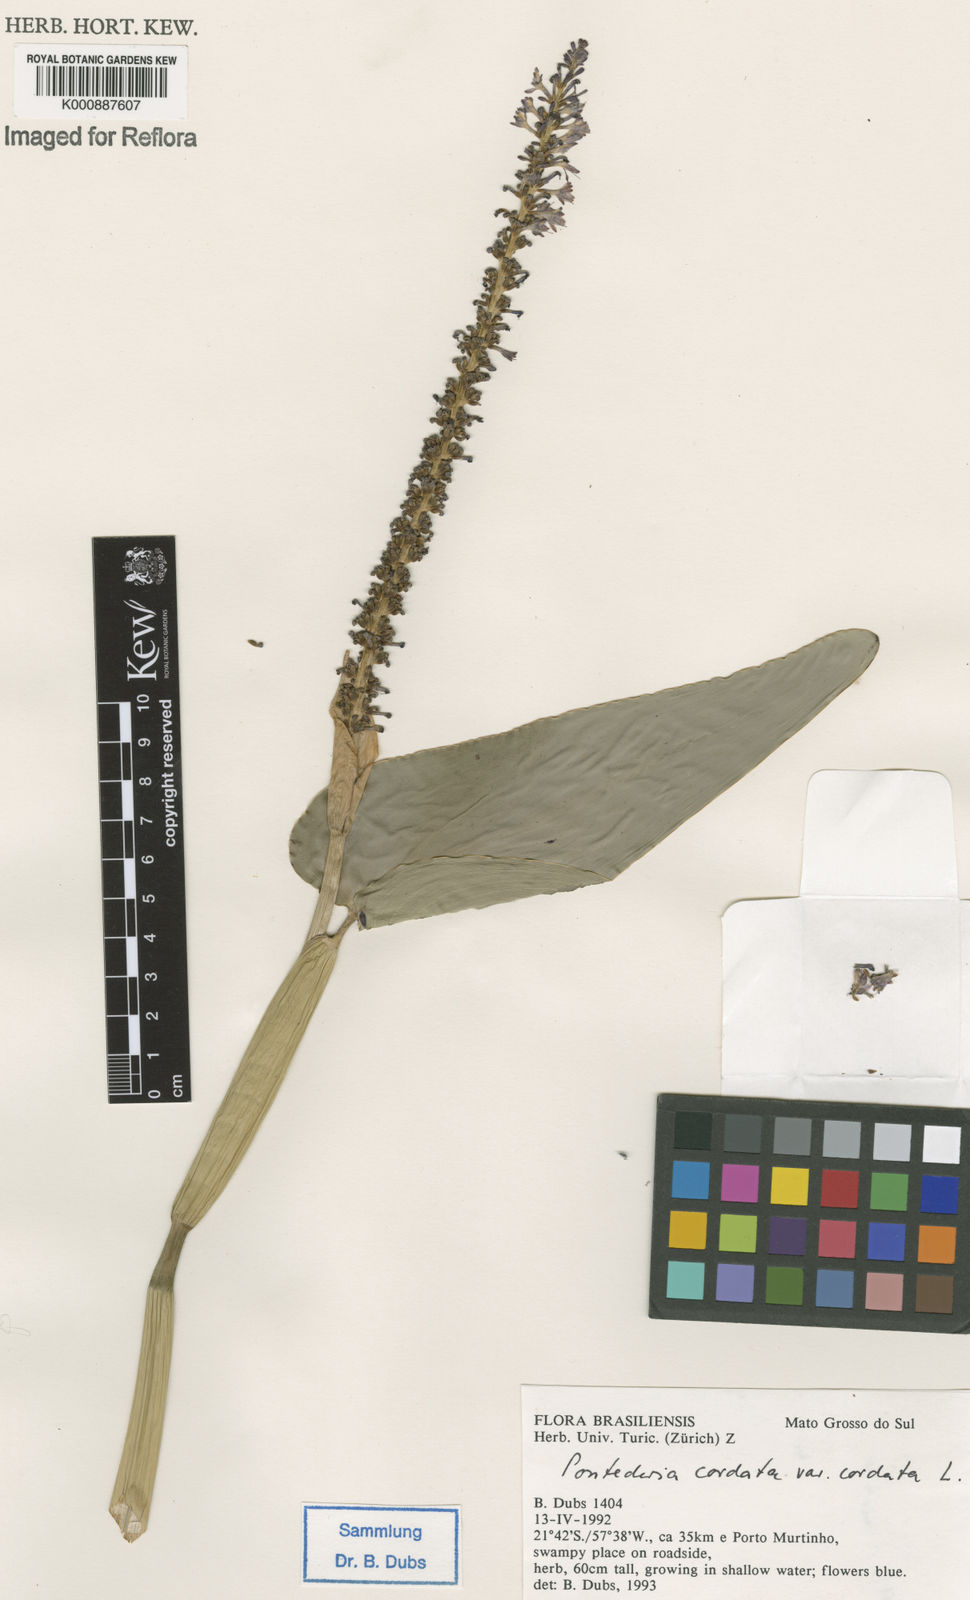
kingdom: Plantae
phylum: Tracheophyta
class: Liliopsida
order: Commelinales
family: Pontederiaceae
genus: Pontederia
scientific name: Pontederia cordata
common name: Pickerelweed
